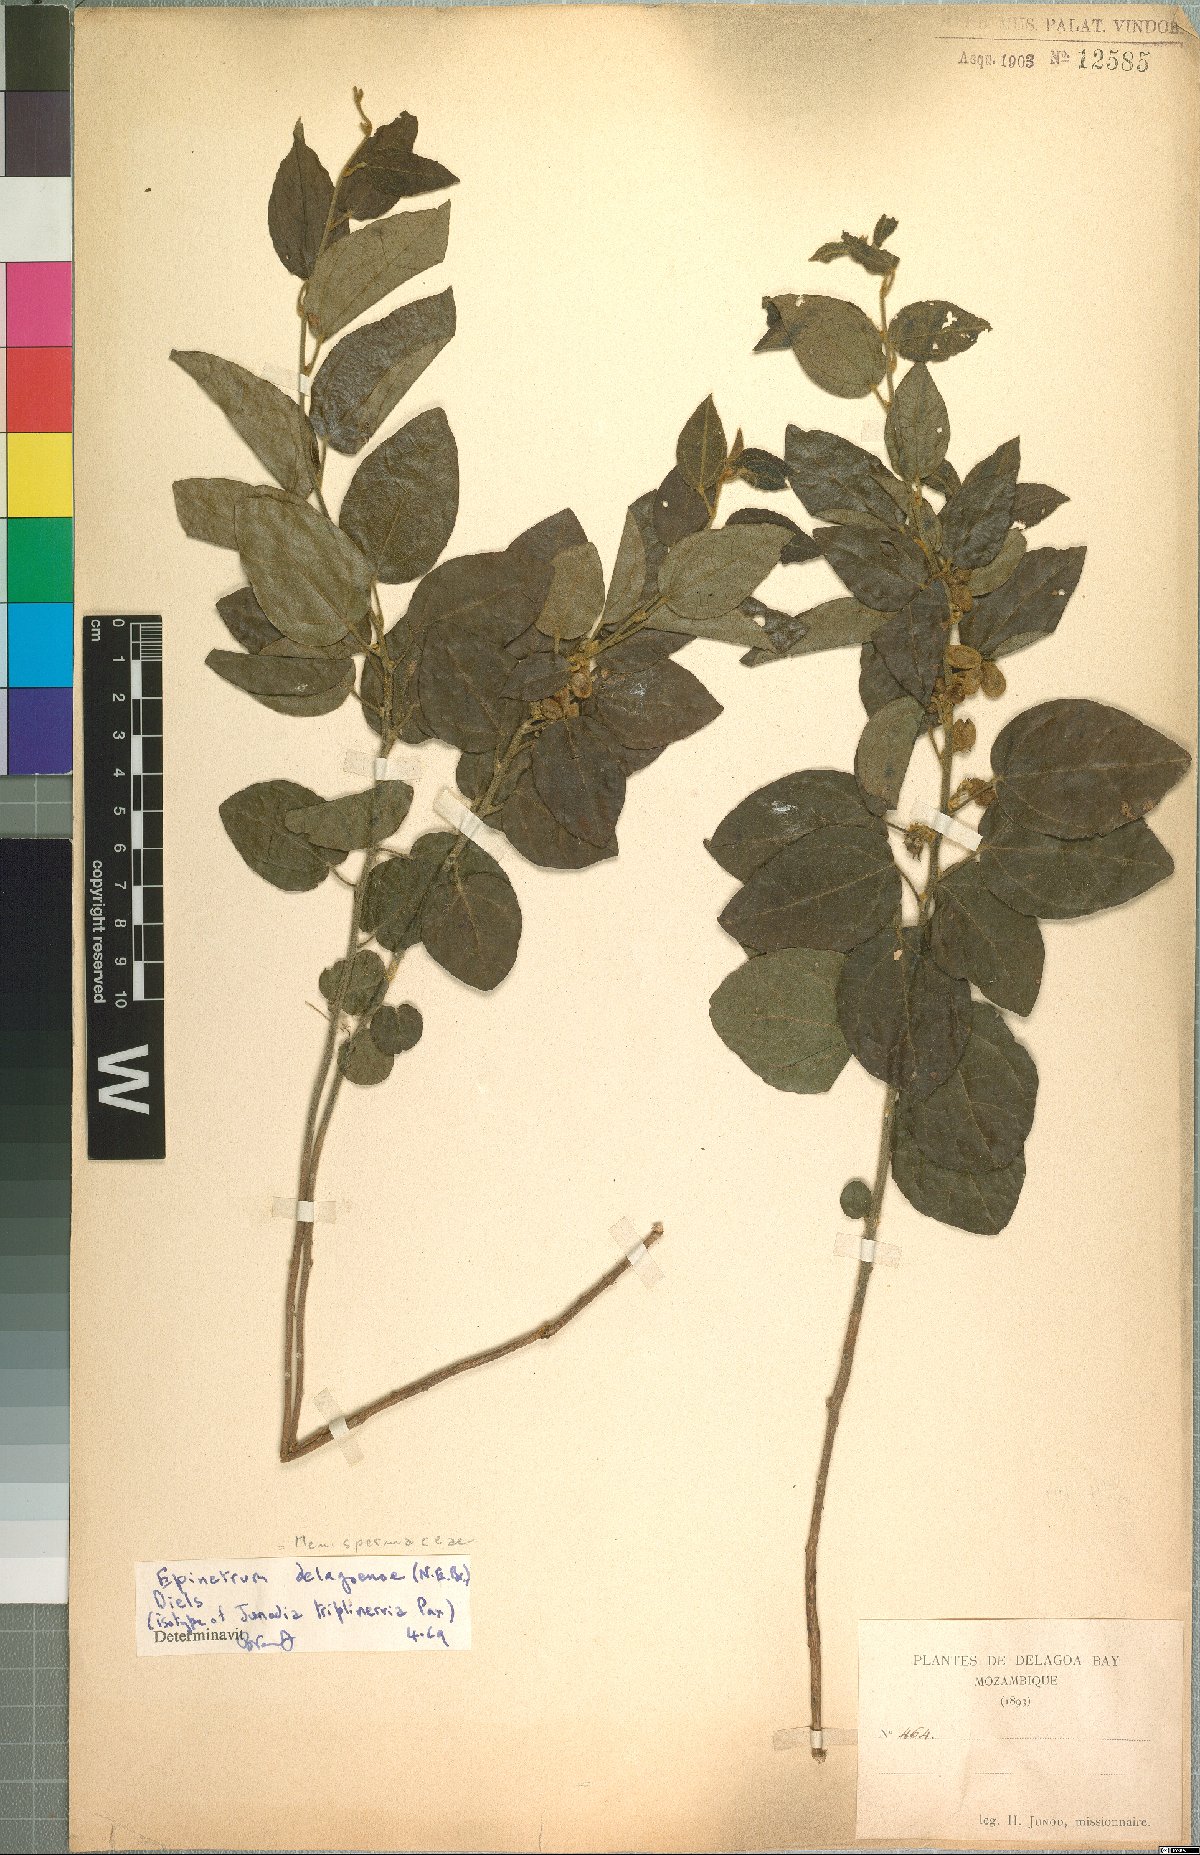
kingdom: Plantae
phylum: Tracheophyta
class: Magnoliopsida
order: Ranunculales
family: Menispermaceae
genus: Albertisia
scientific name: Albertisia delagoensis
